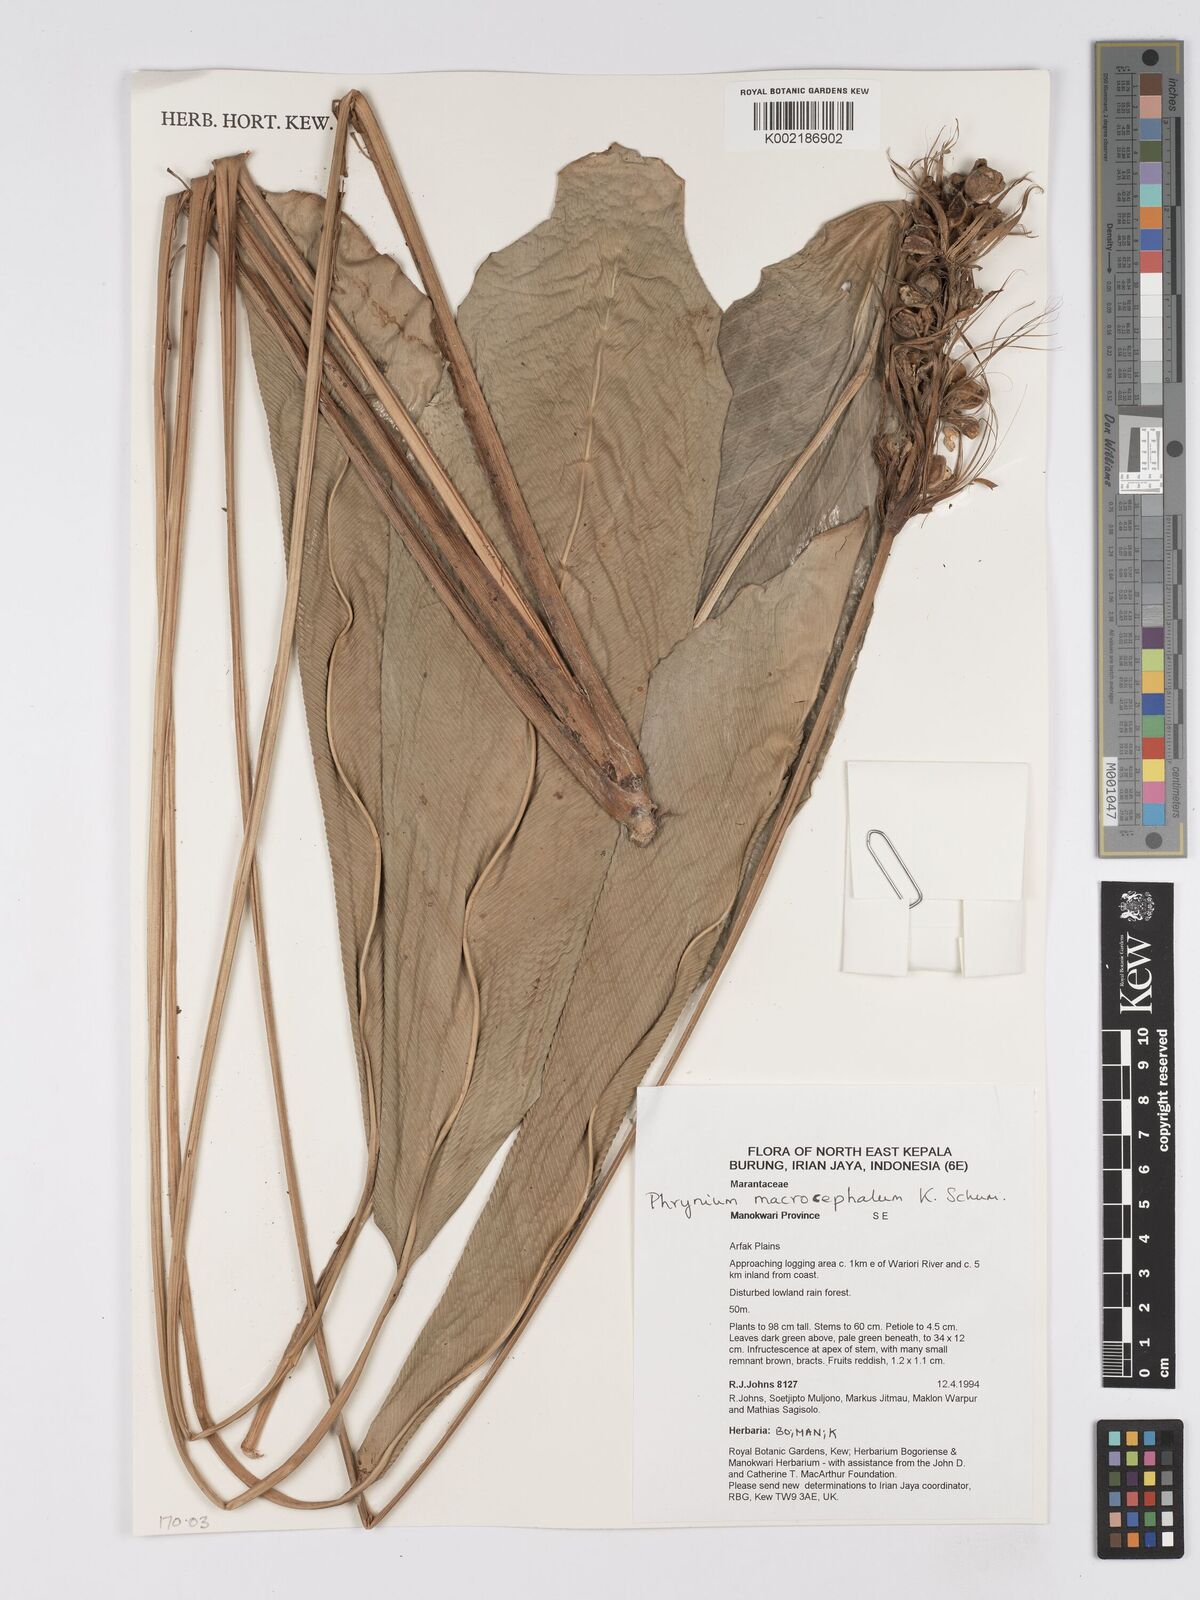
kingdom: Plantae
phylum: Tracheophyta
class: Liliopsida
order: Zingiberales
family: Marantaceae
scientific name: Marantaceae
